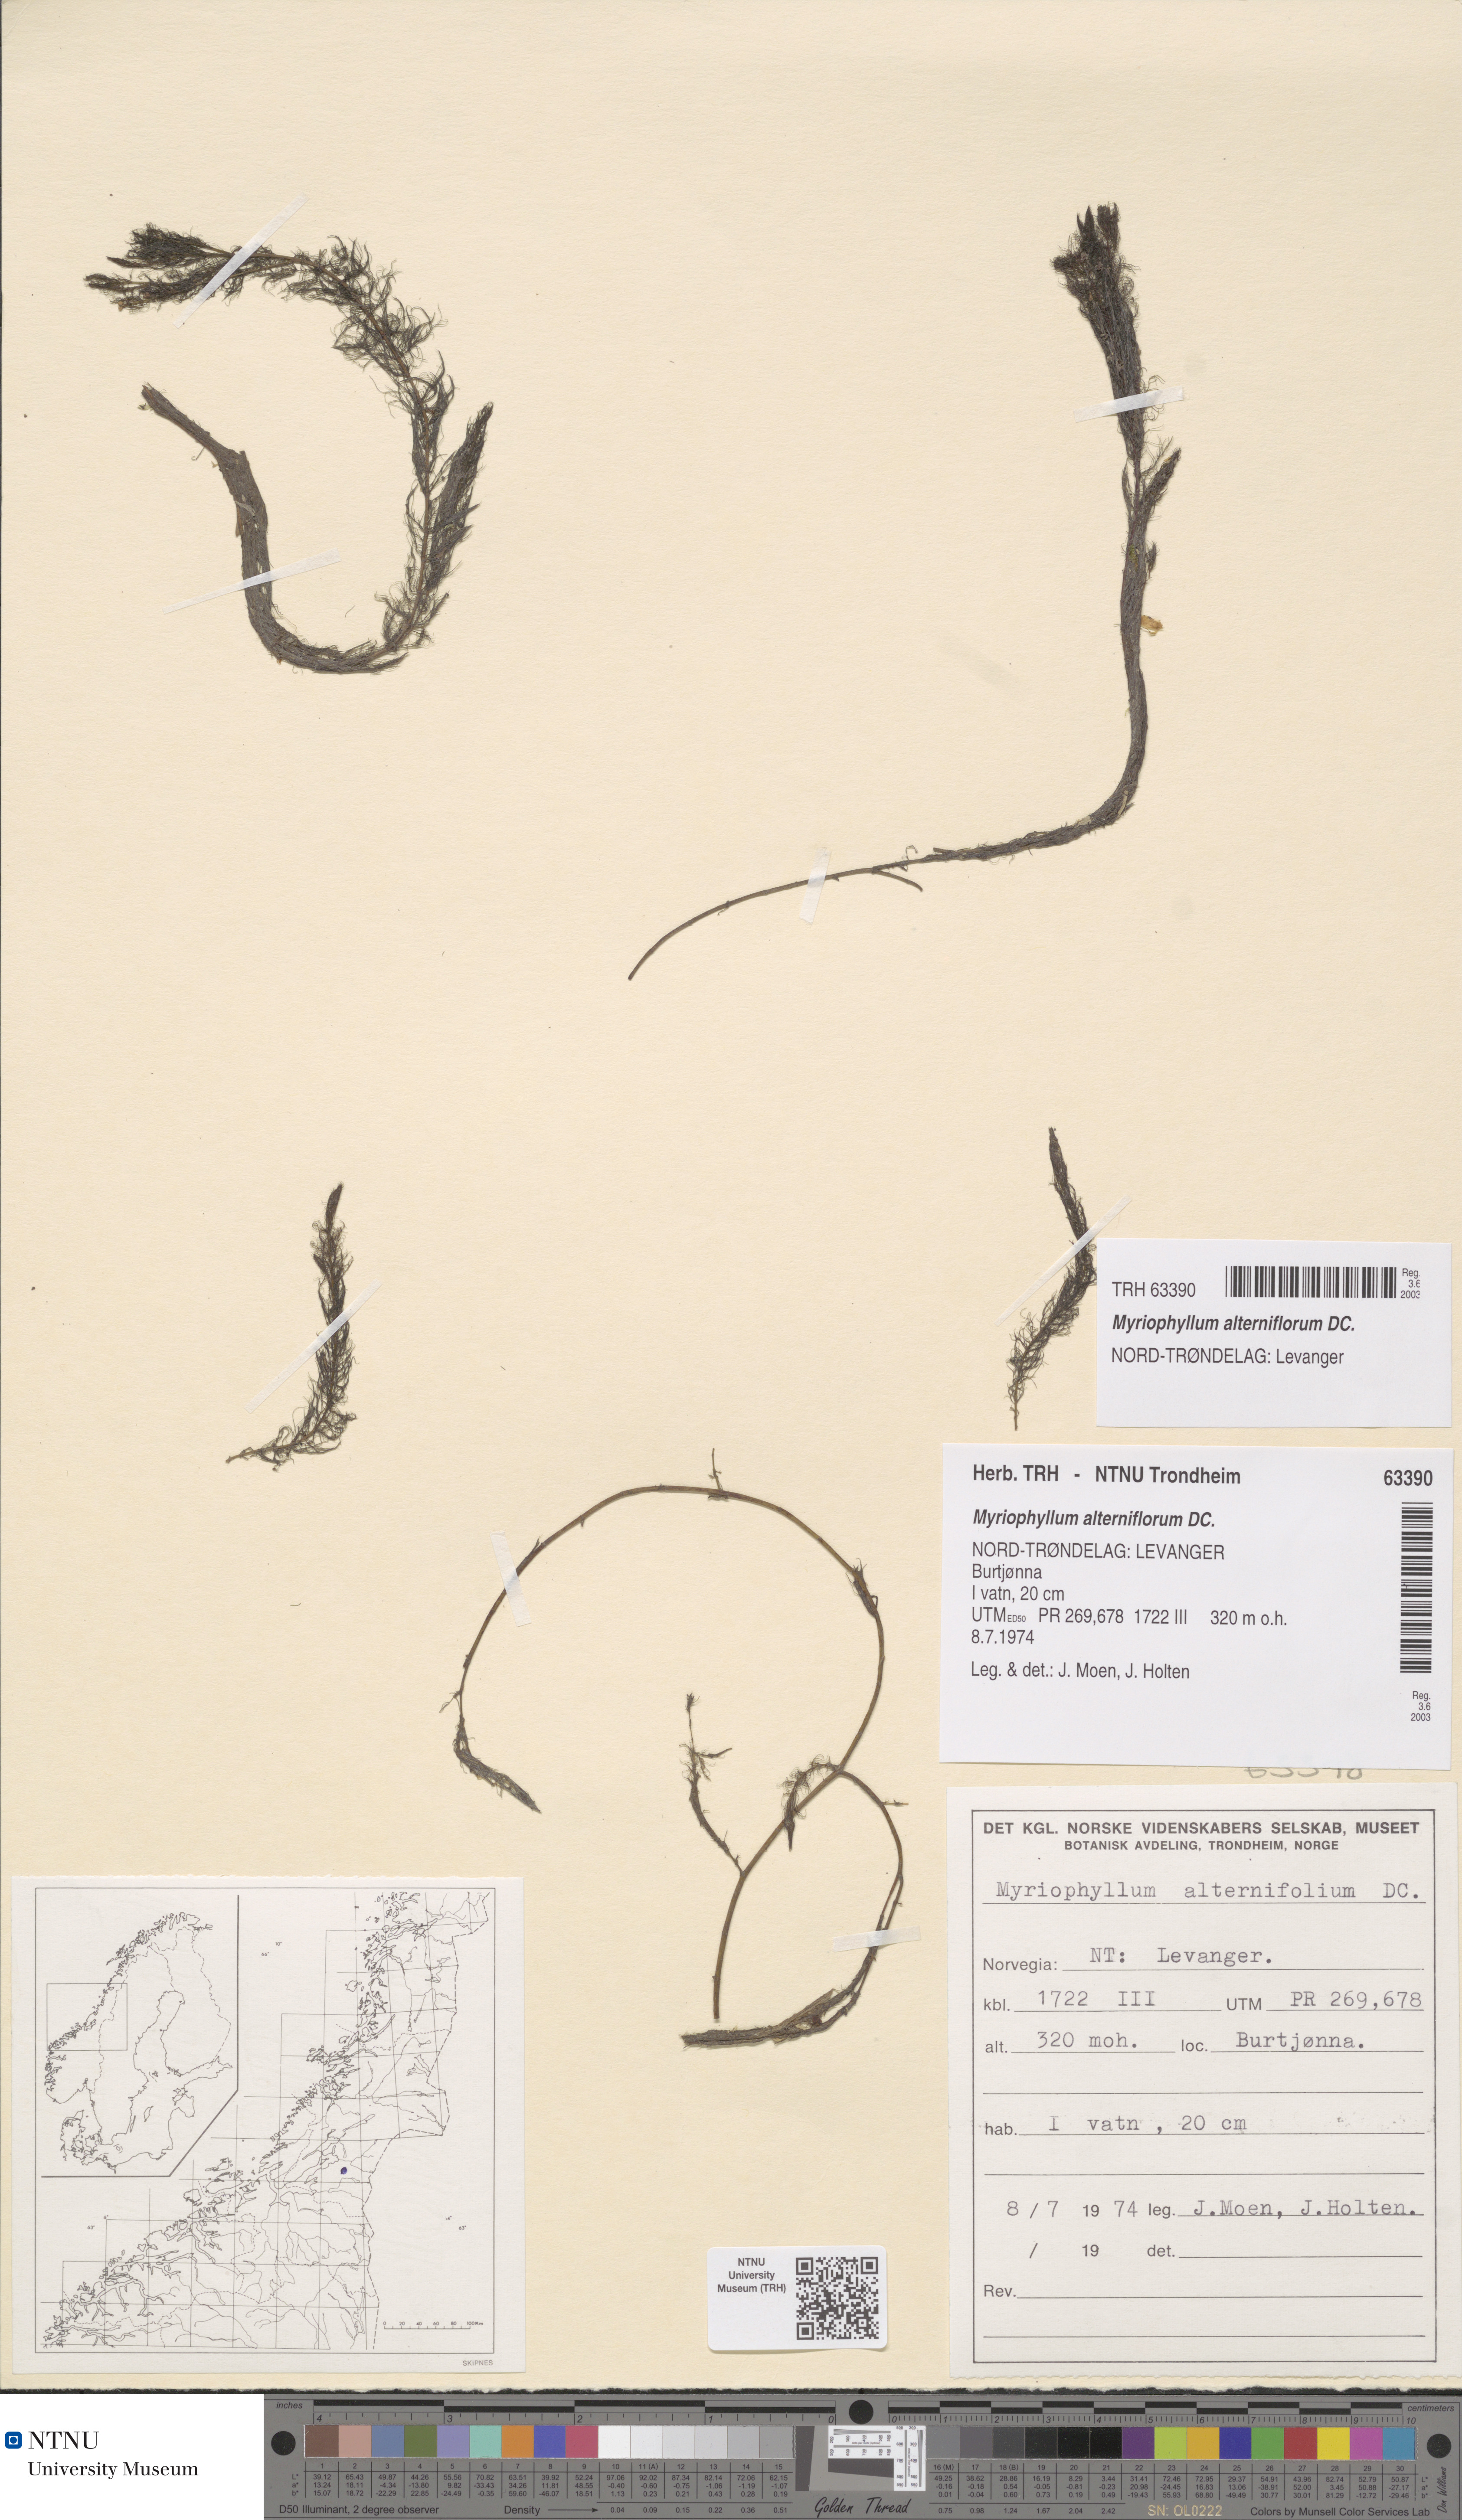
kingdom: Plantae
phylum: Tracheophyta
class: Magnoliopsida
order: Saxifragales
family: Haloragaceae
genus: Myriophyllum
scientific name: Myriophyllum alterniflorum
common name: Alternate water-milfoil
